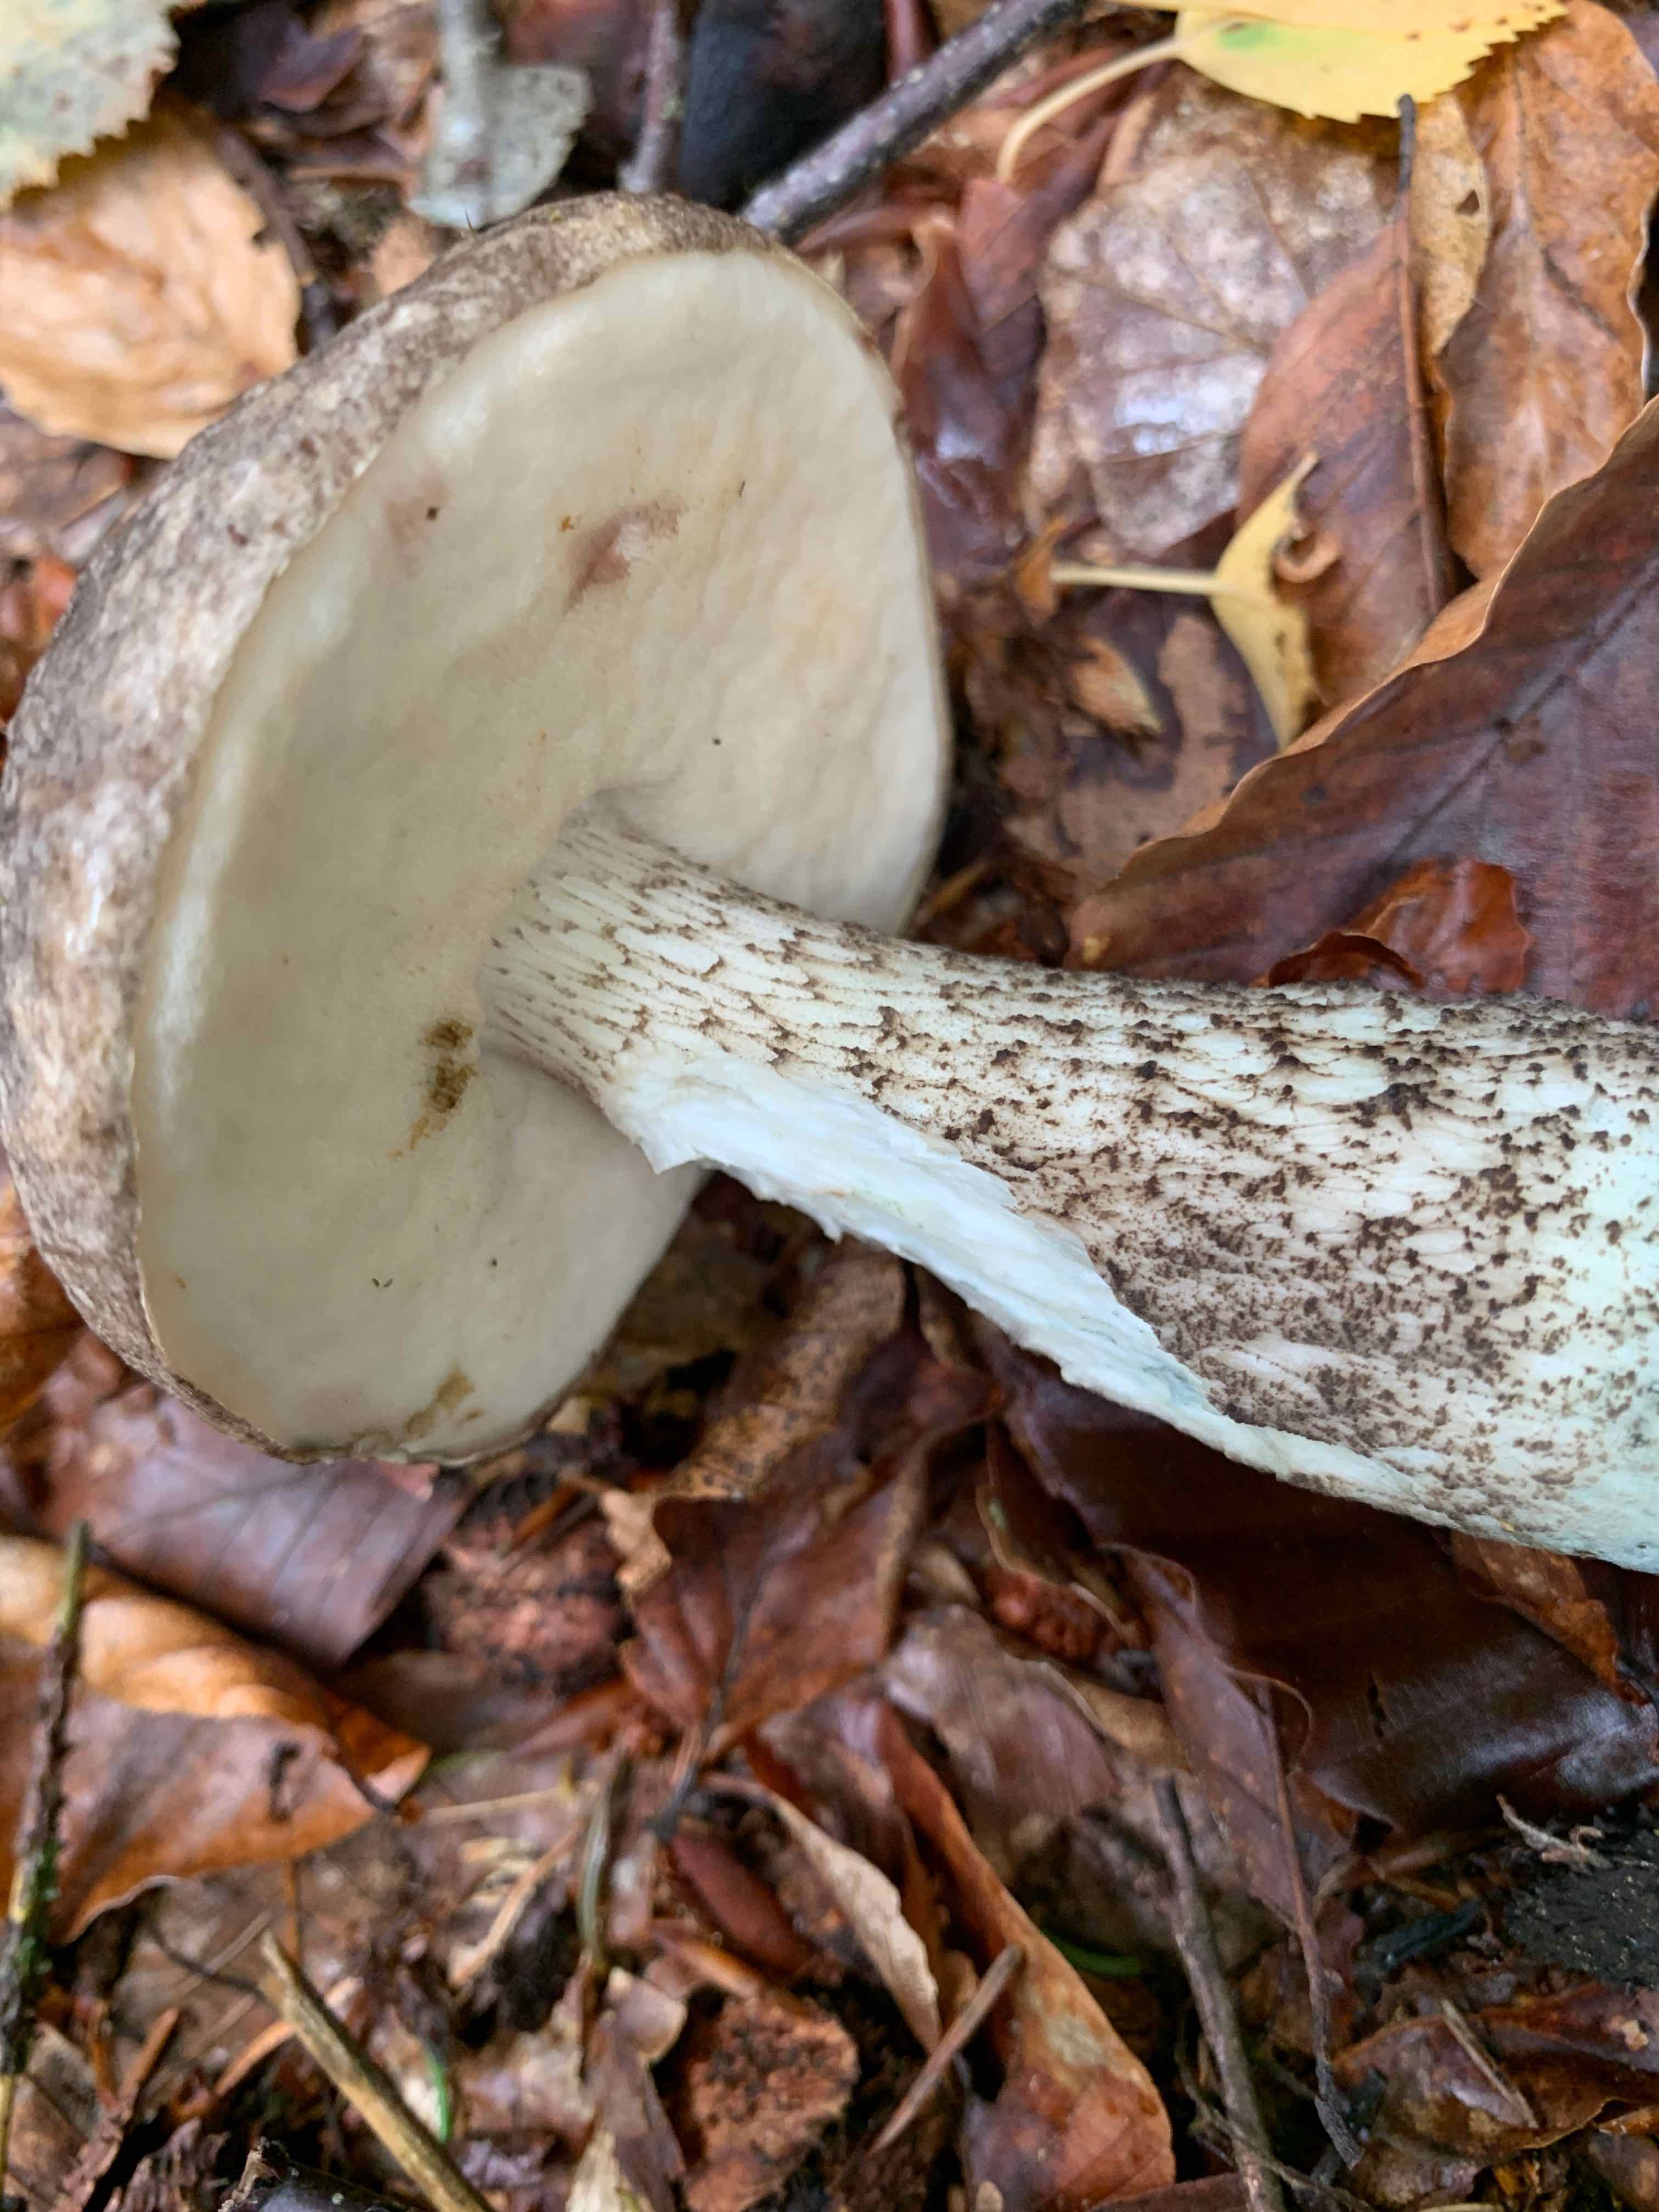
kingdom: Fungi
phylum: Basidiomycota
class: Agaricomycetes
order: Boletales
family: Boletaceae
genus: Leccinum
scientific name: Leccinum variicolor
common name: flammet skælrørhat
